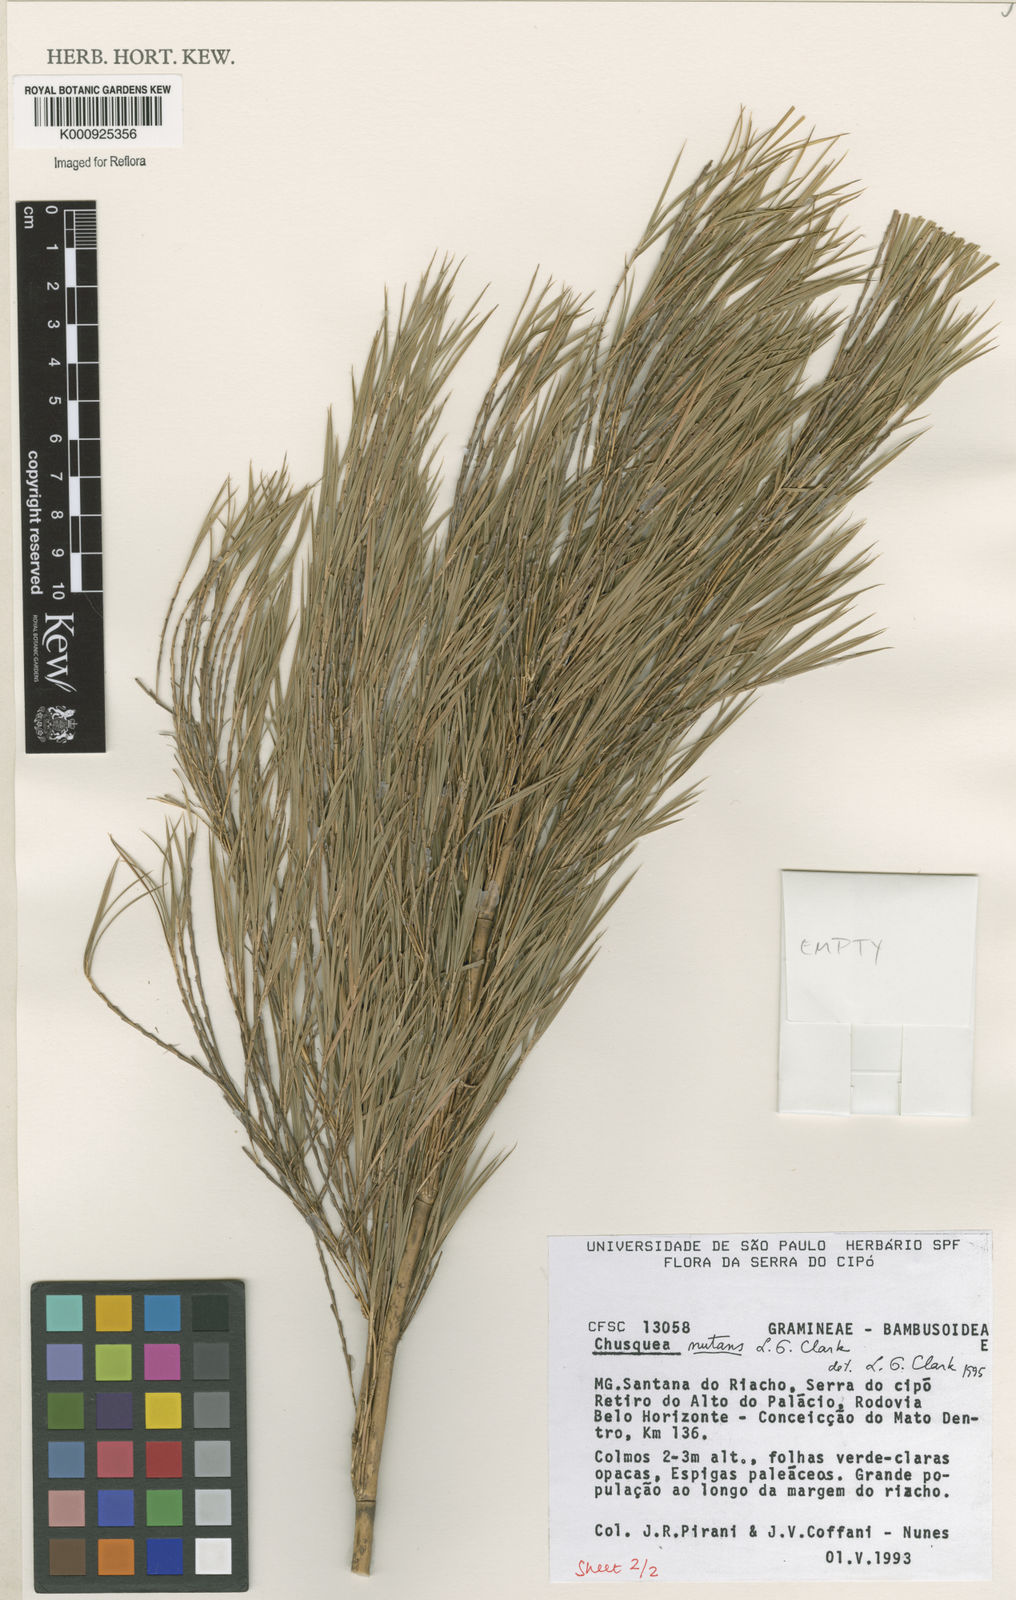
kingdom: Plantae
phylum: Tracheophyta
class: Liliopsida
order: Poales
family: Poaceae
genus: Chusquea
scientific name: Chusquea nutans
